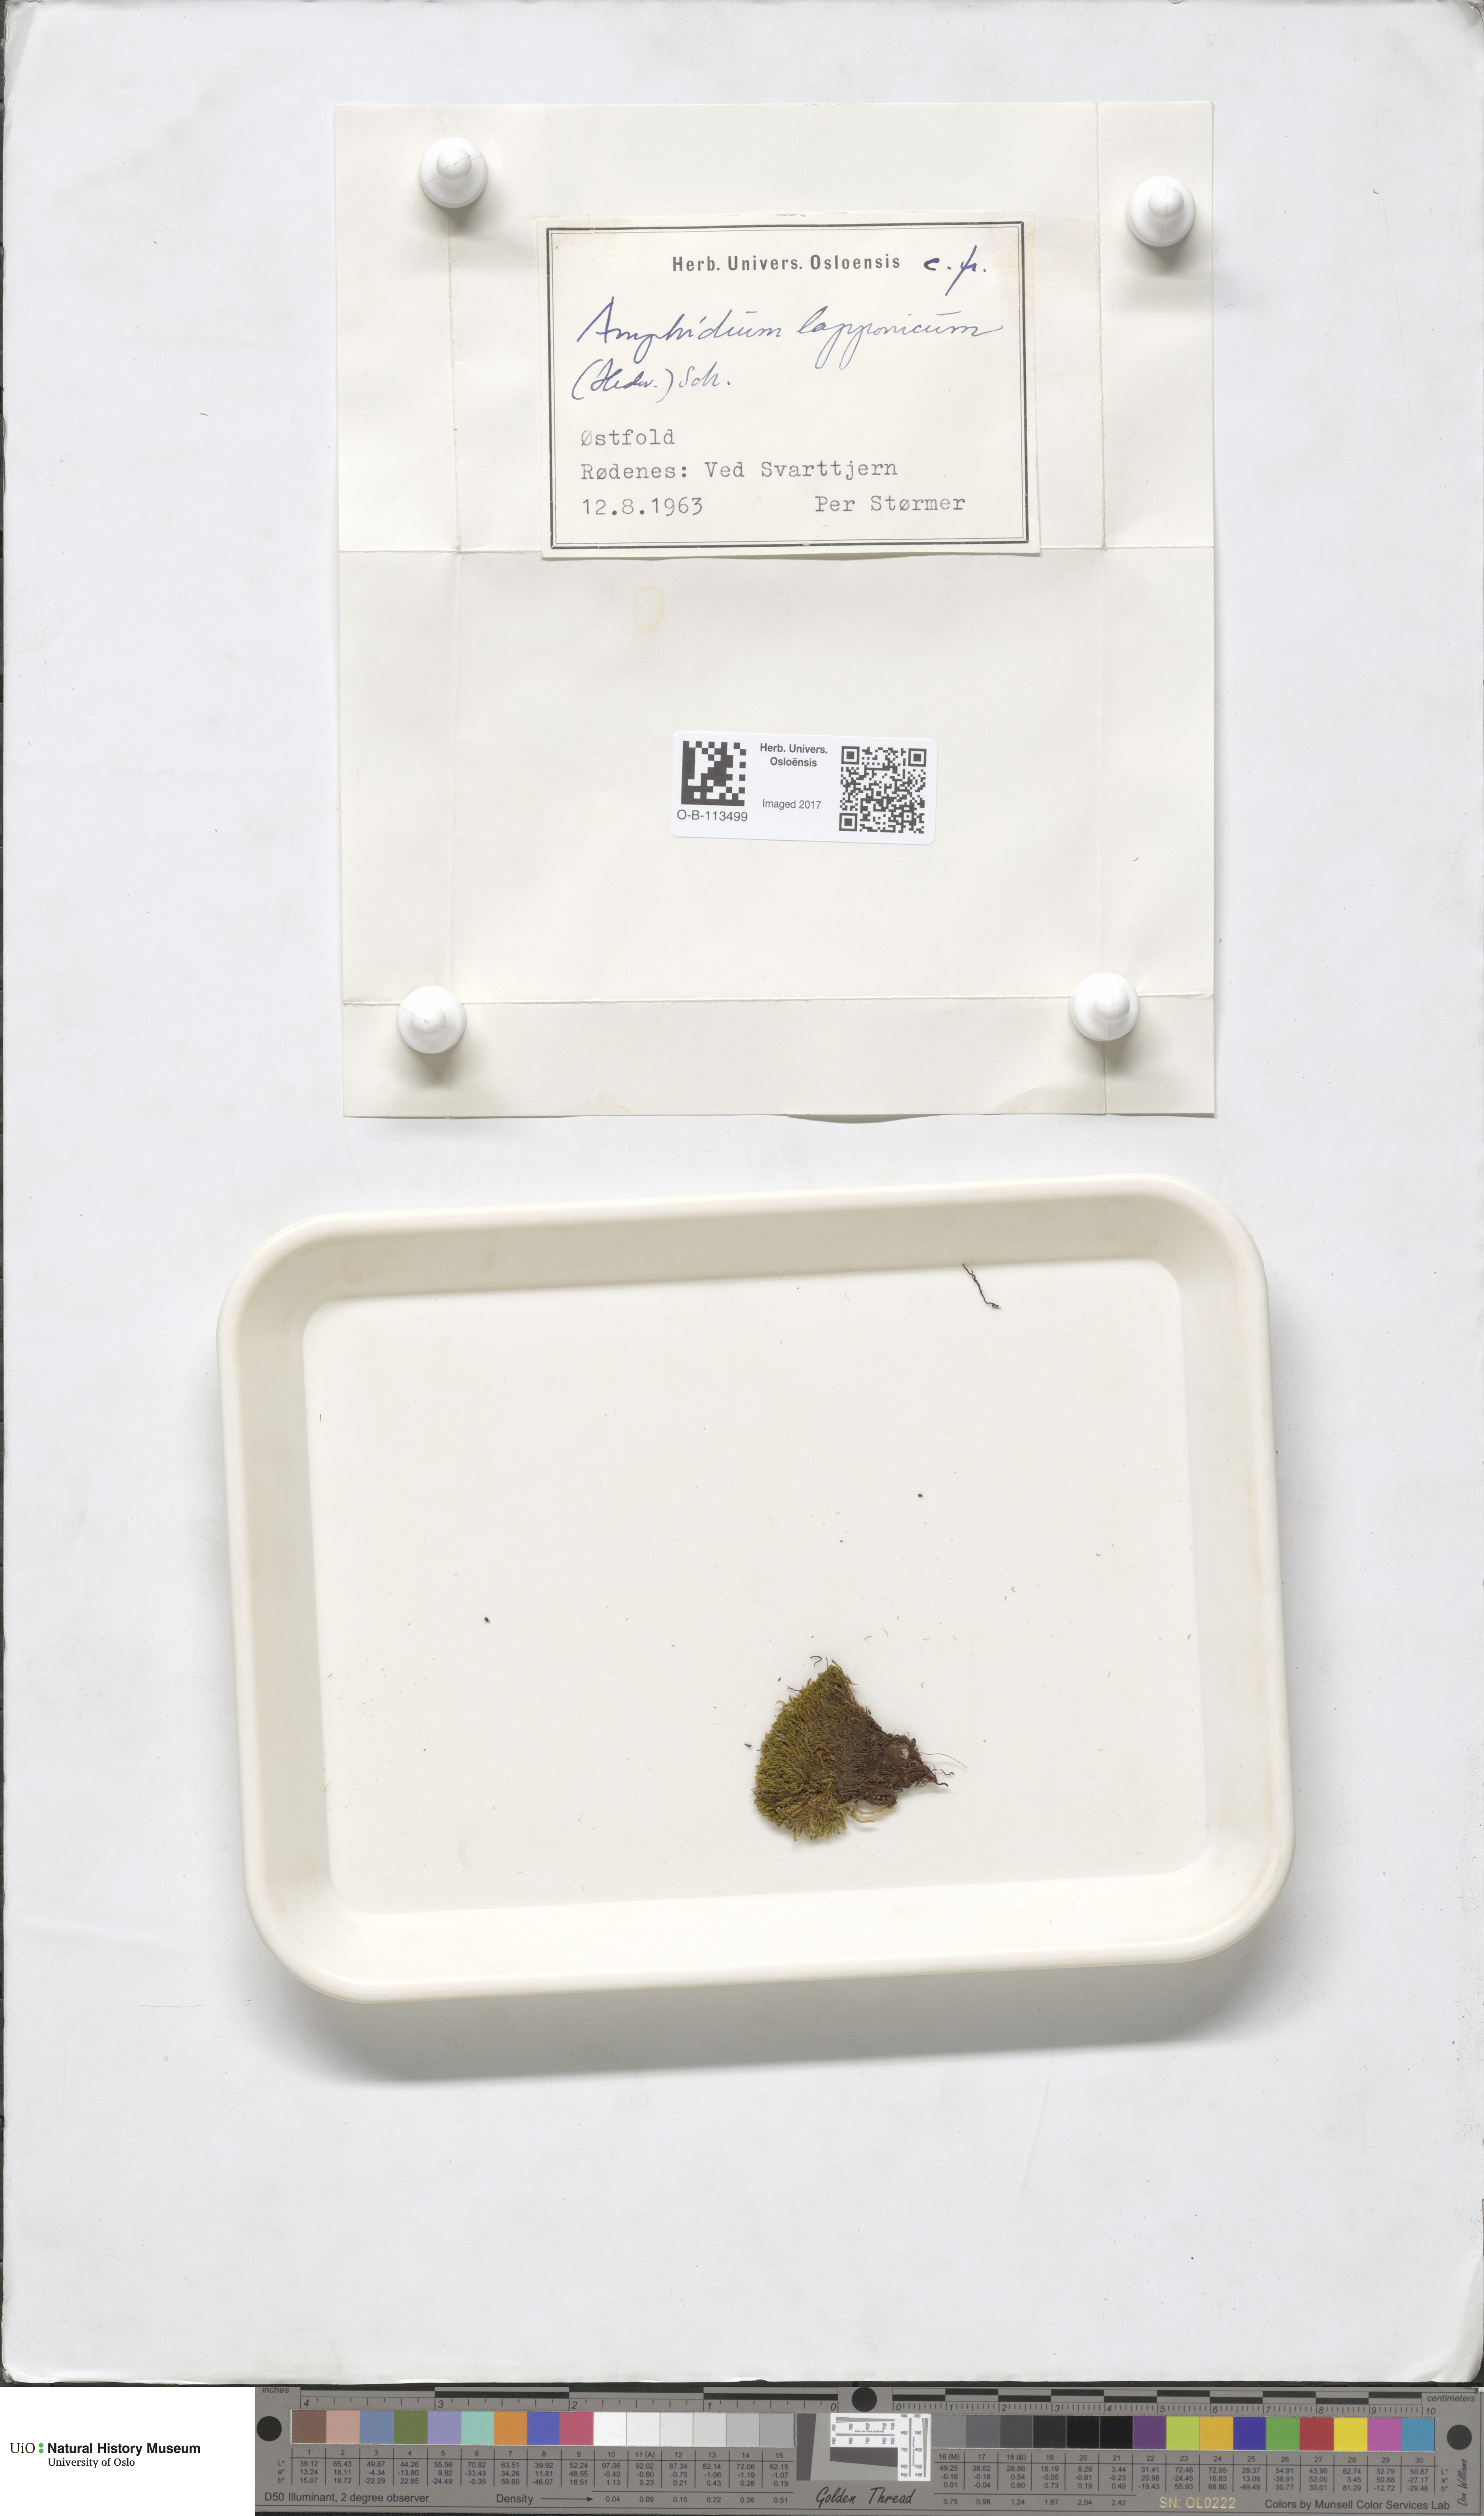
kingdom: Plantae
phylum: Bryophyta
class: Bryopsida
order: Dicranales
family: Amphidiaceae
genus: Amphidium
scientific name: Amphidium lapponicum
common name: Lapland yoke moss
